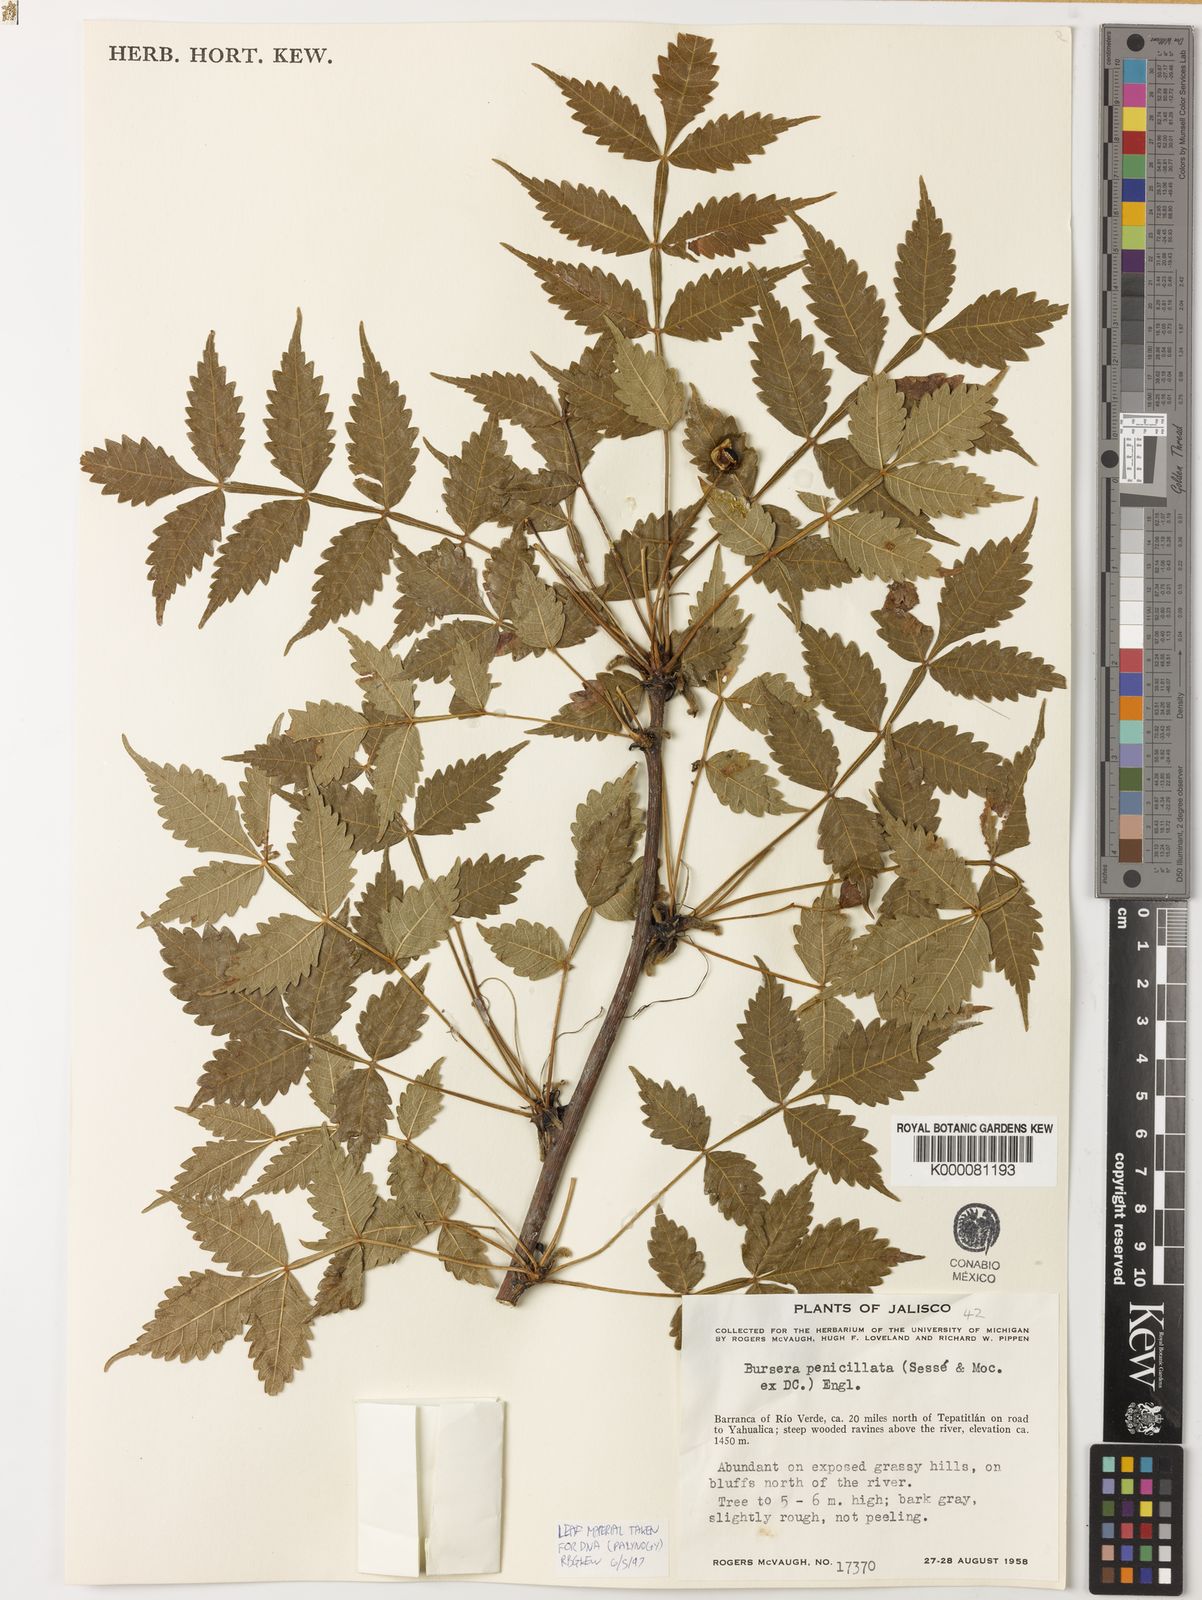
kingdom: Plantae
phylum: Tracheophyta
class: Magnoliopsida
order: Sapindales
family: Burseraceae
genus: Bursera
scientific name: Bursera penicillata
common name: Indian-lavender
